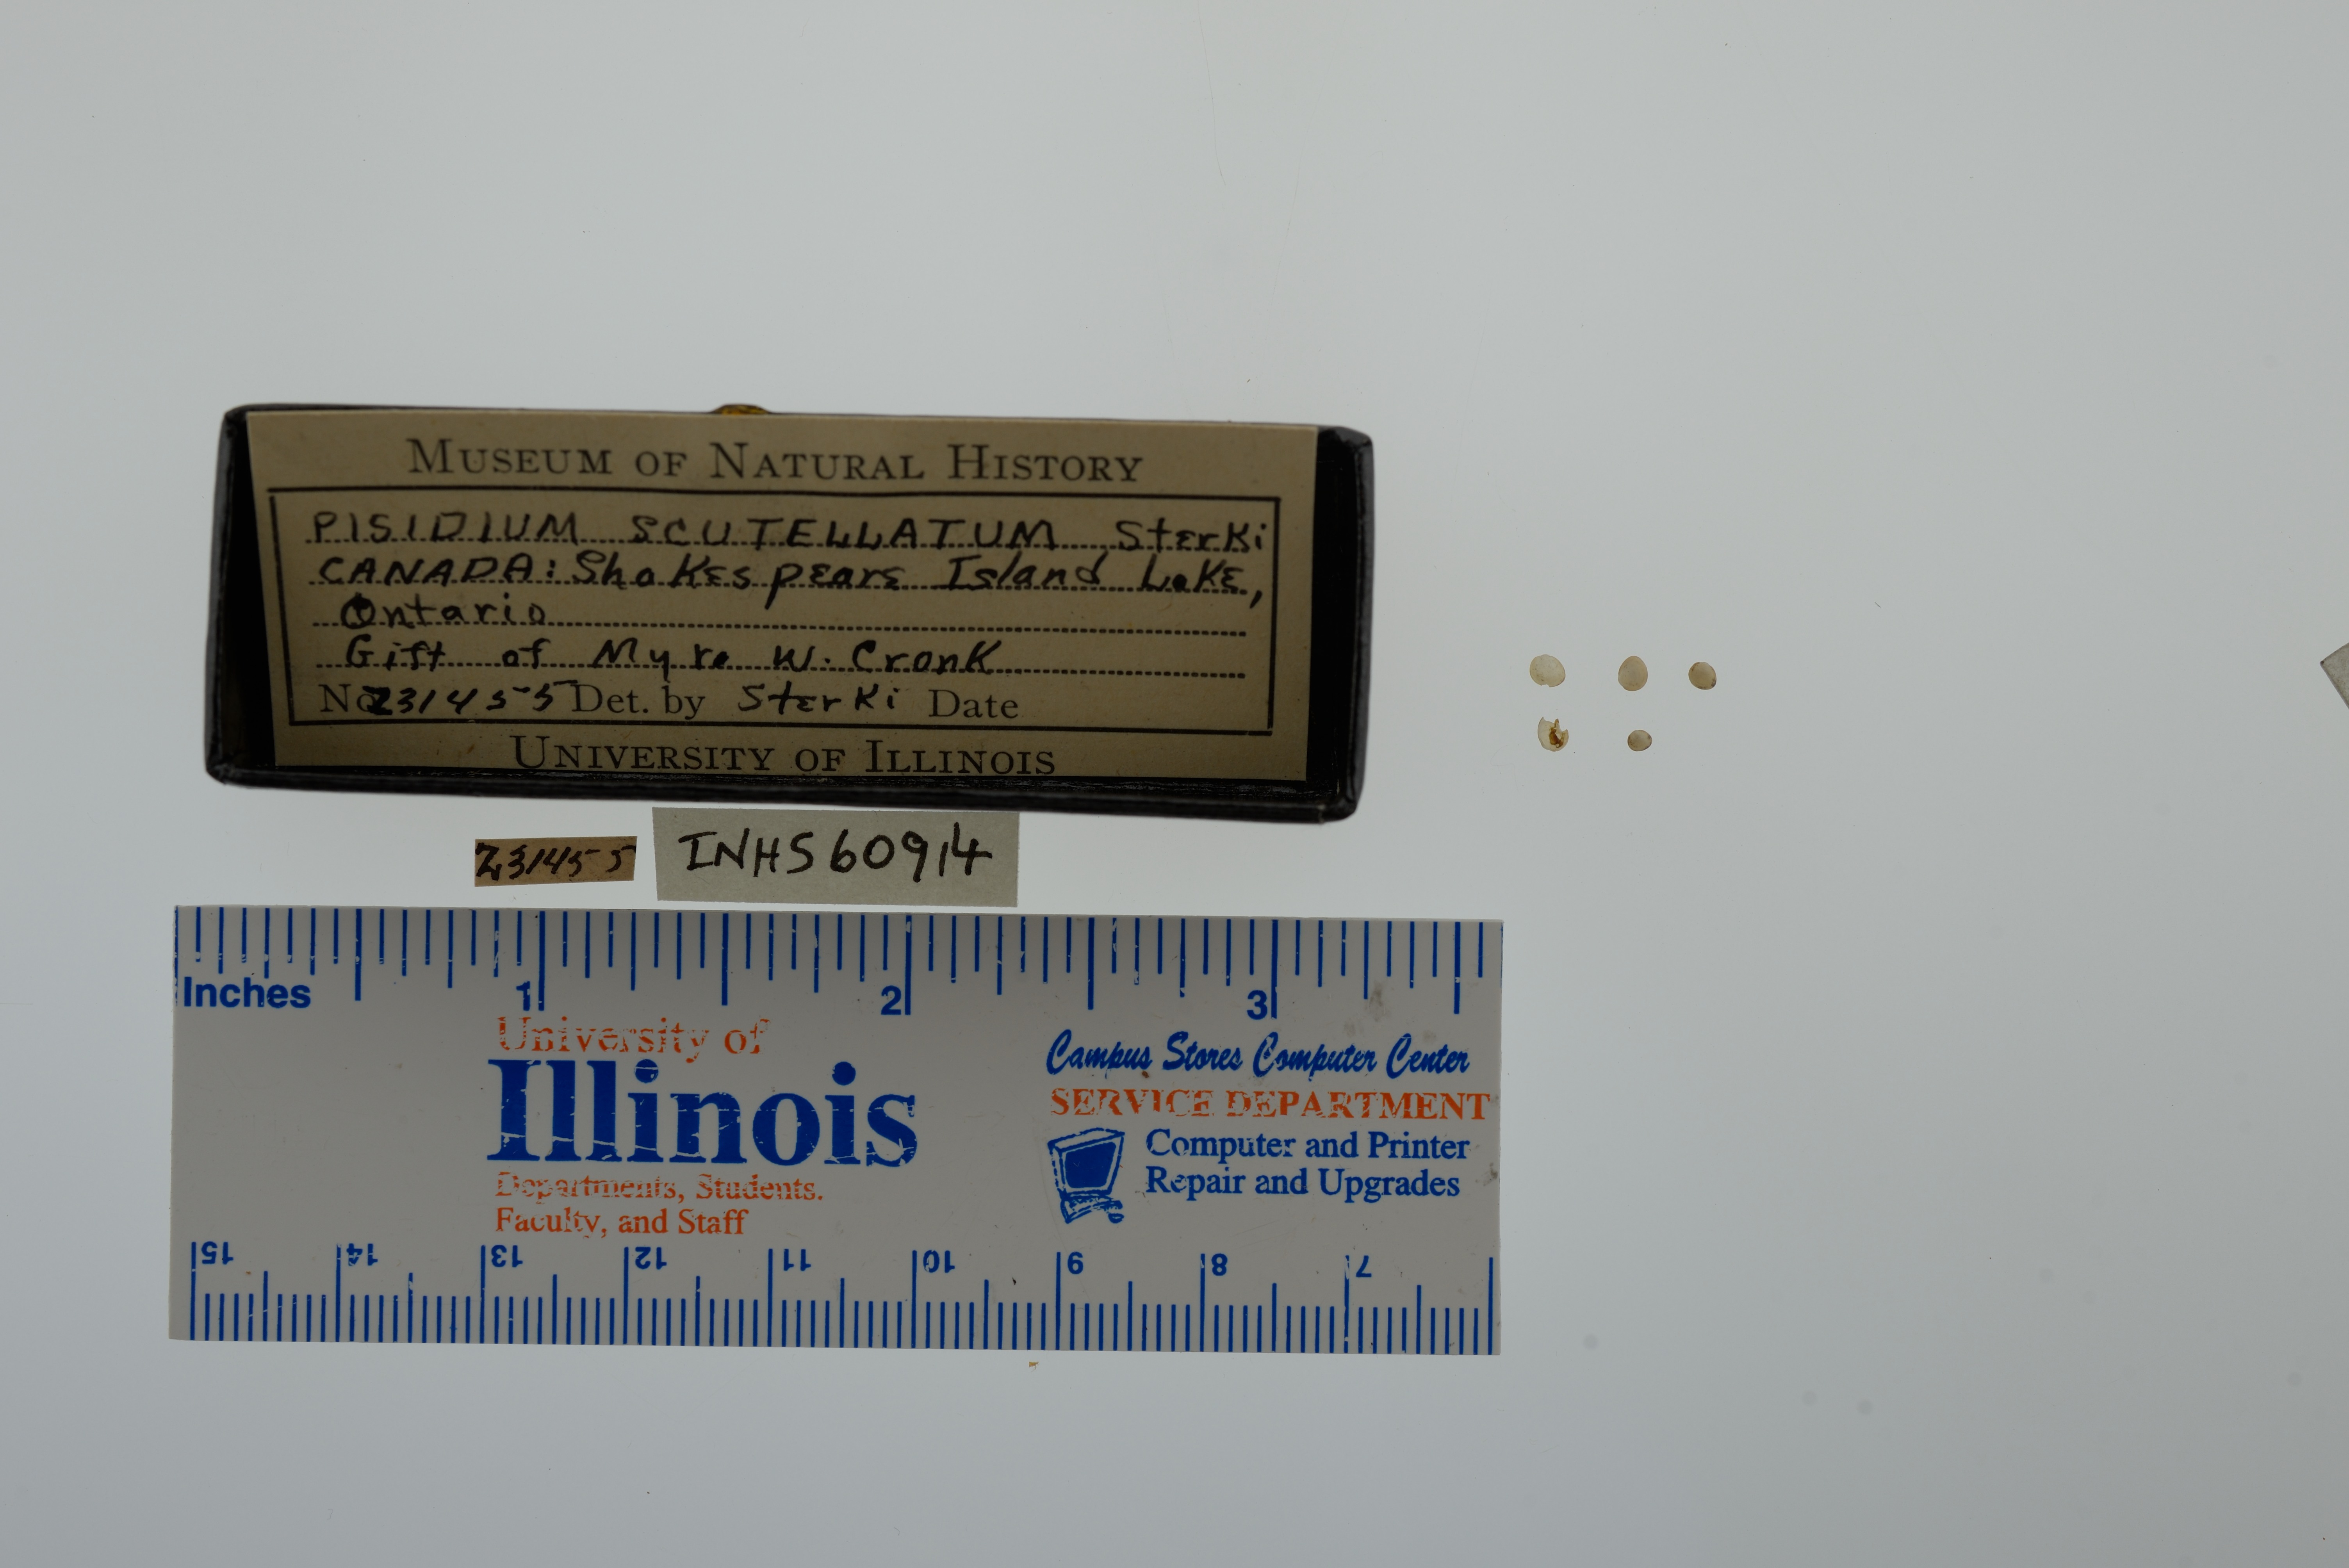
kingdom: Animalia
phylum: Mollusca
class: Bivalvia
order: Sphaeriida
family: Sphaeriidae
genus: Euglesa
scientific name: Euglesa lilljeborgii
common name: Lilljeborg peaclam
